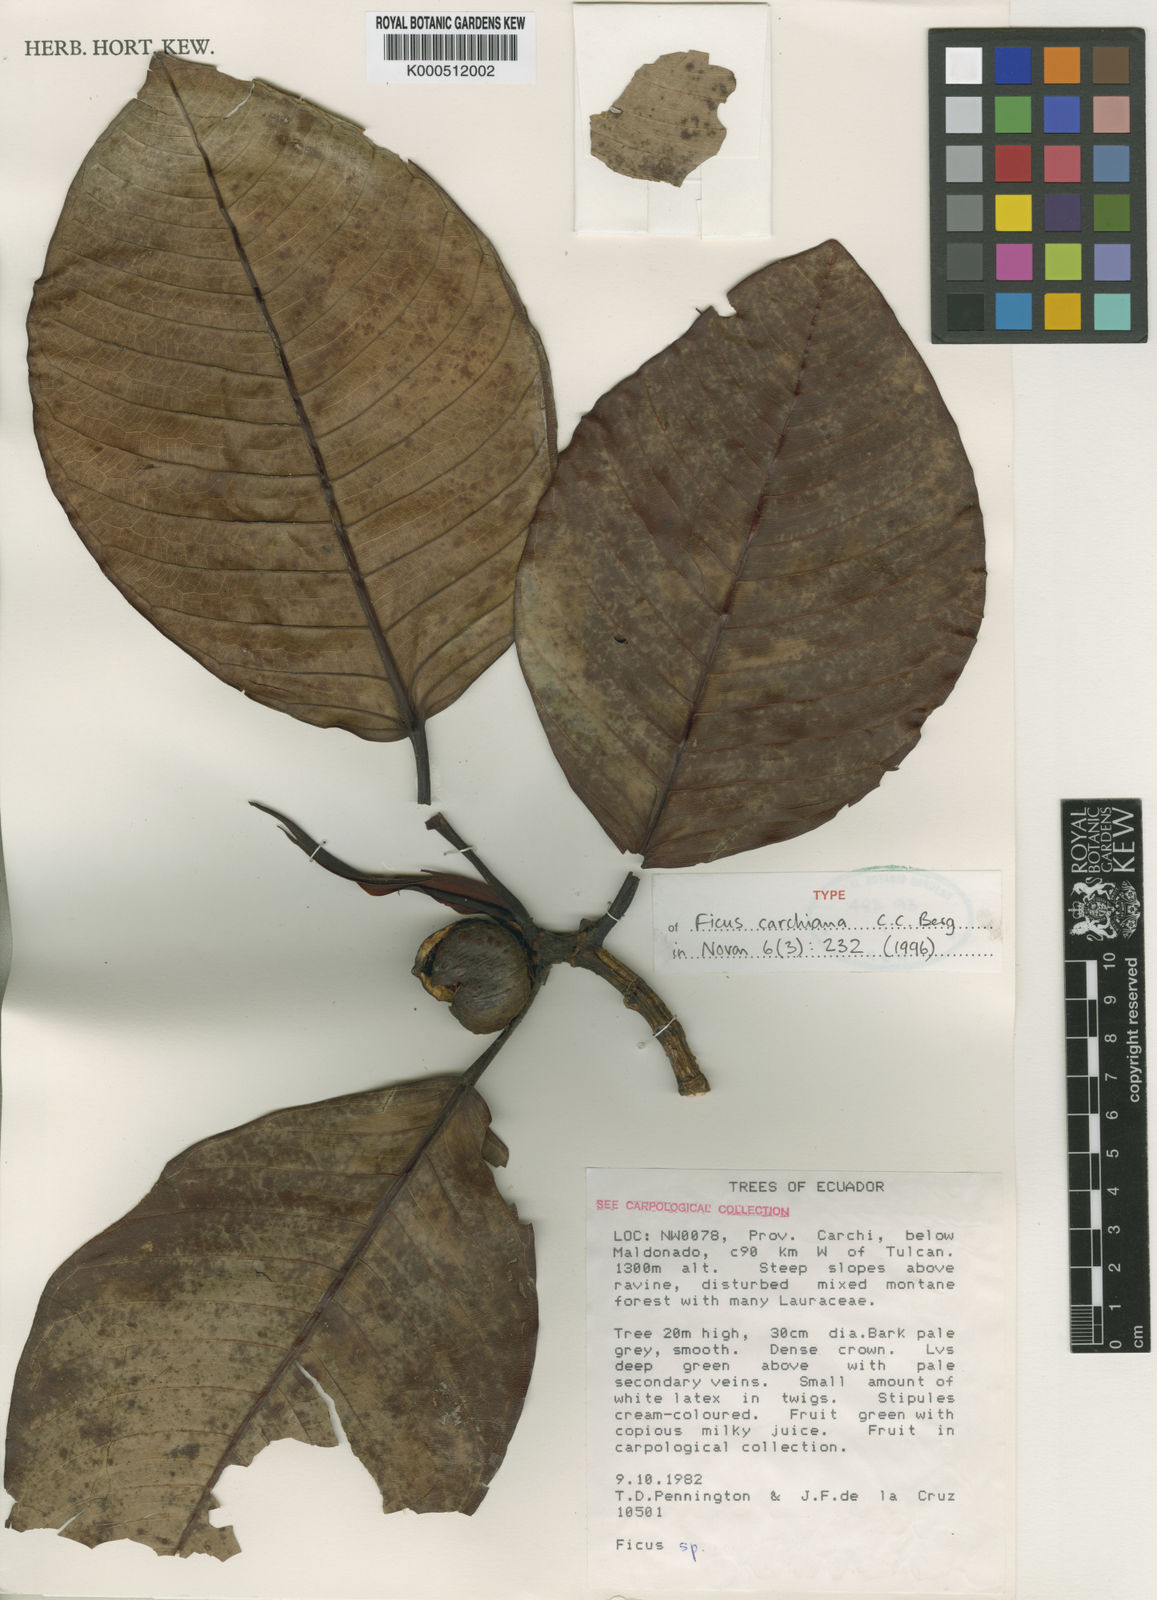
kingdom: Plantae
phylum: Tracheophyta
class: Magnoliopsida
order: Rosales
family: Moraceae
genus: Ficus
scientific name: Ficus carchiana
